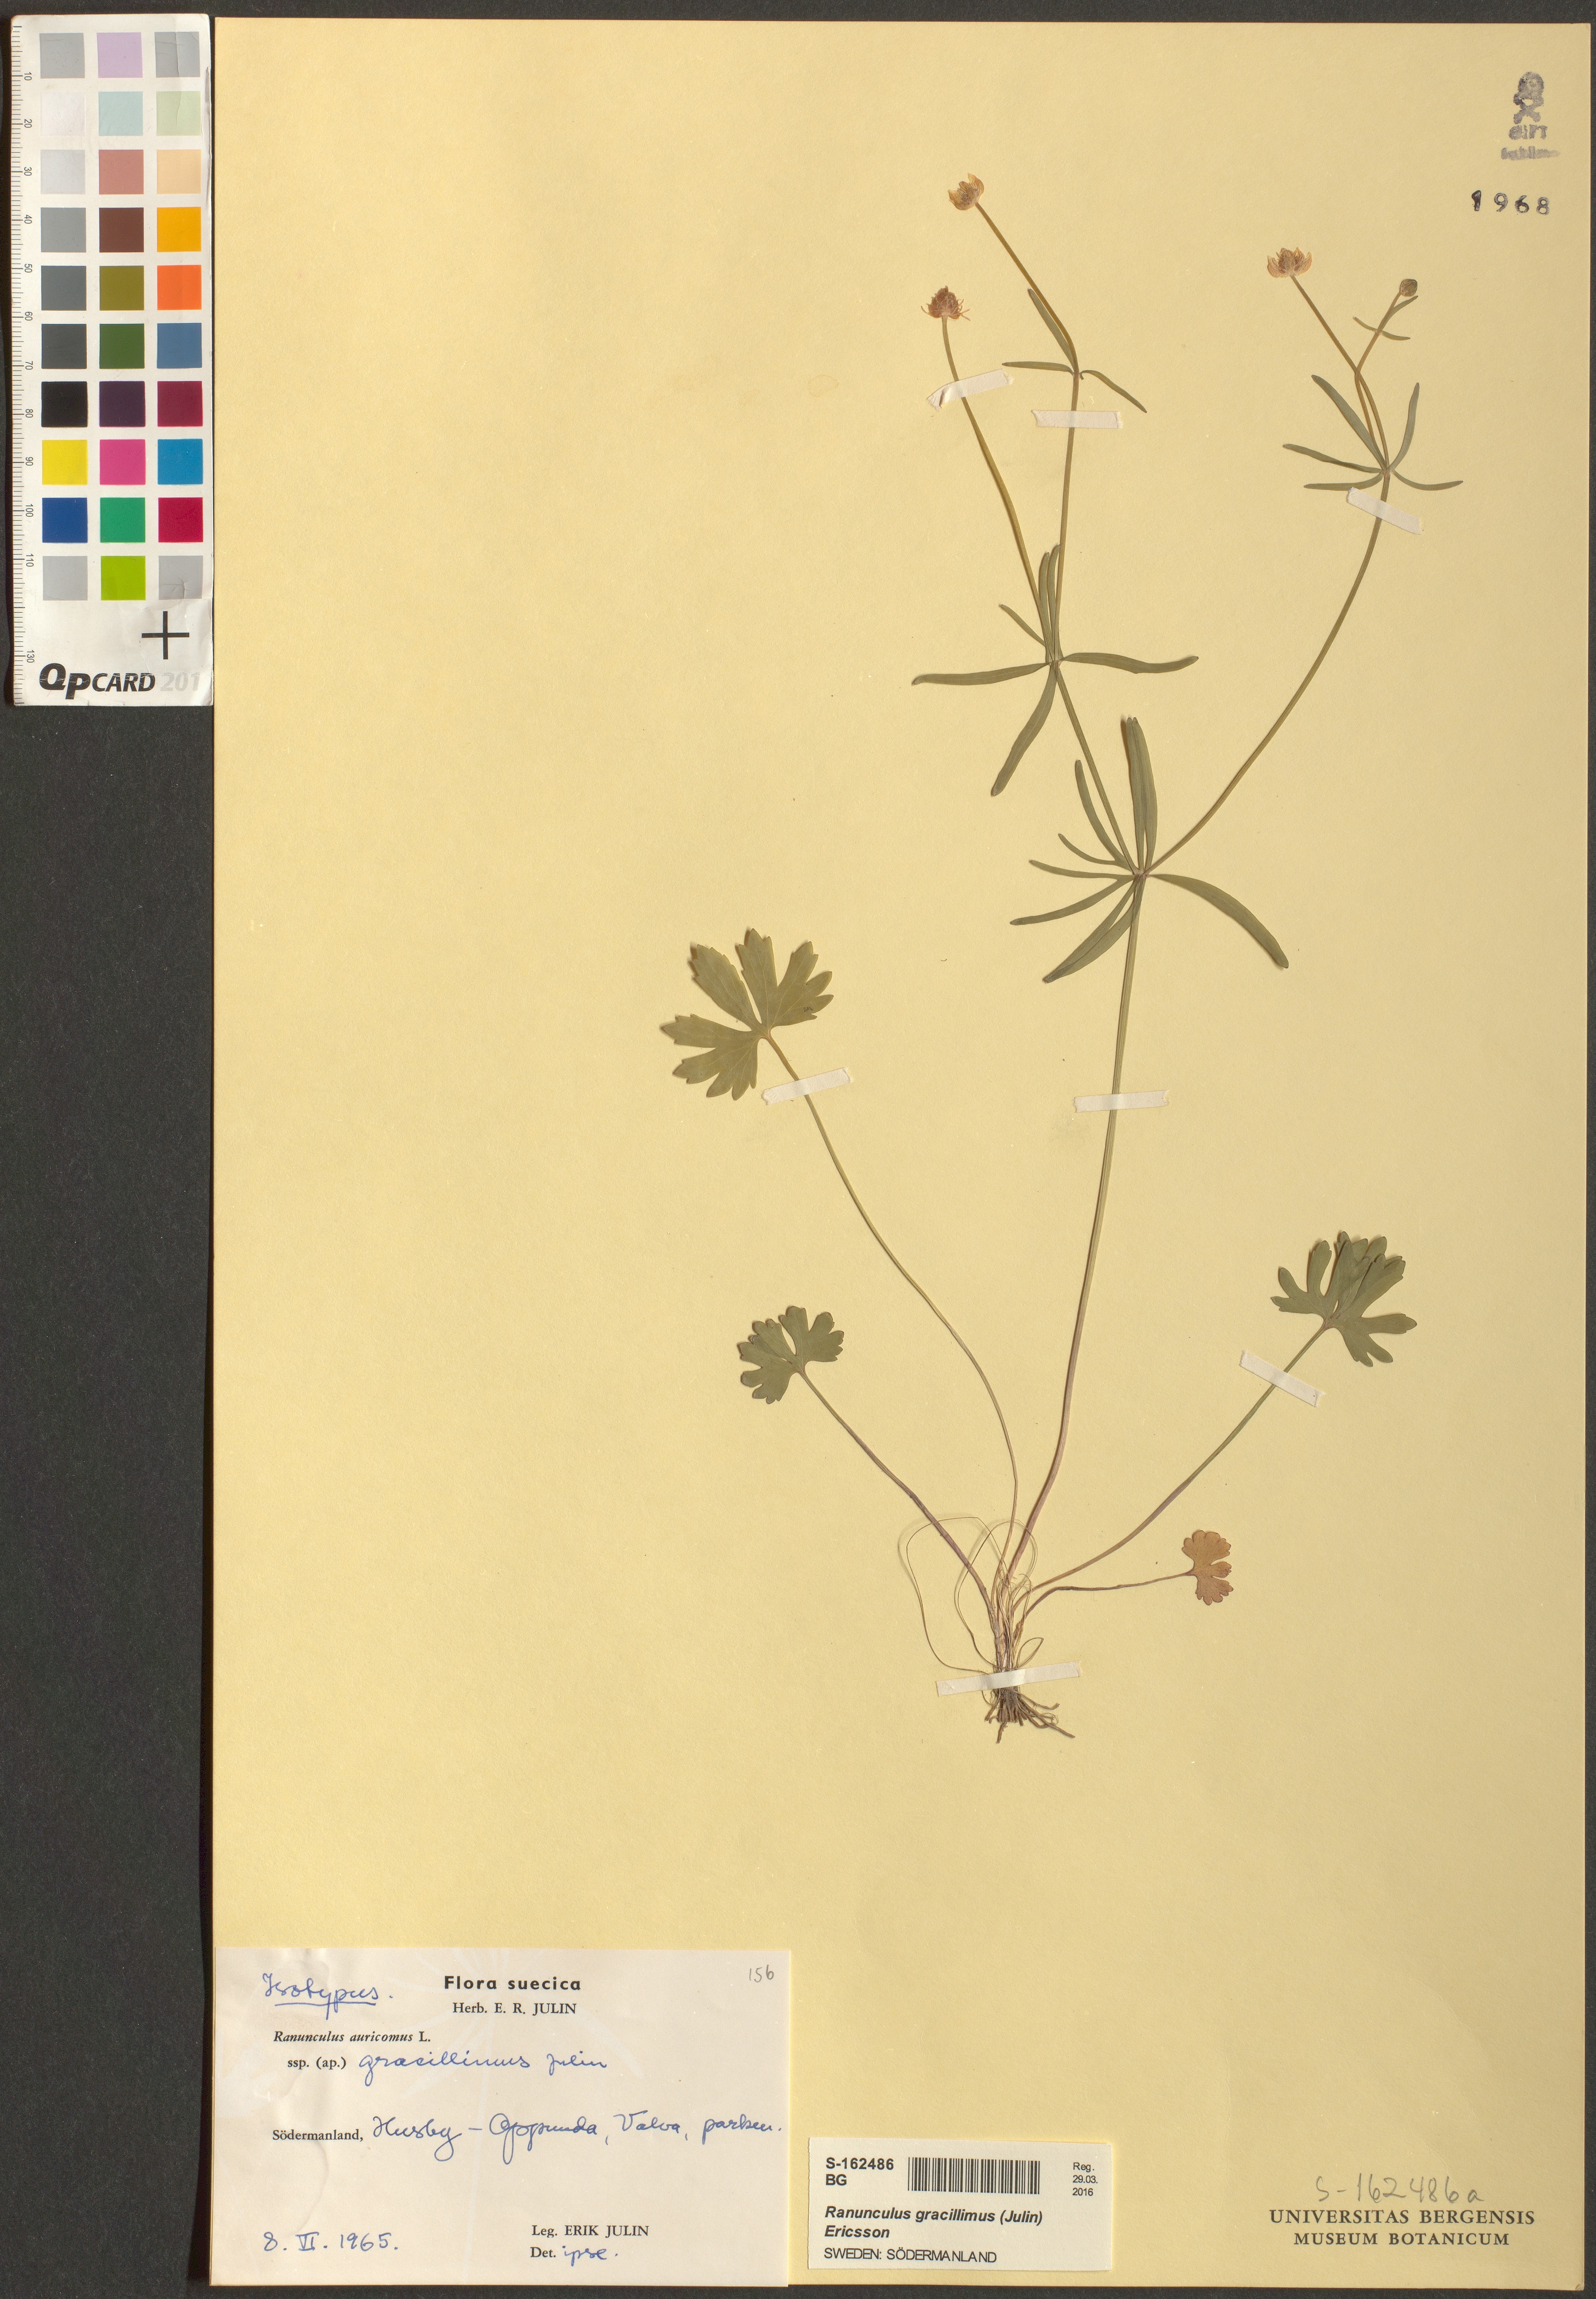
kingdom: Plantae
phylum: Tracheophyta
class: Magnoliopsida
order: Ranunculales
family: Ranunculaceae
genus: Ranunculus
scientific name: Ranunculus gracillimus
